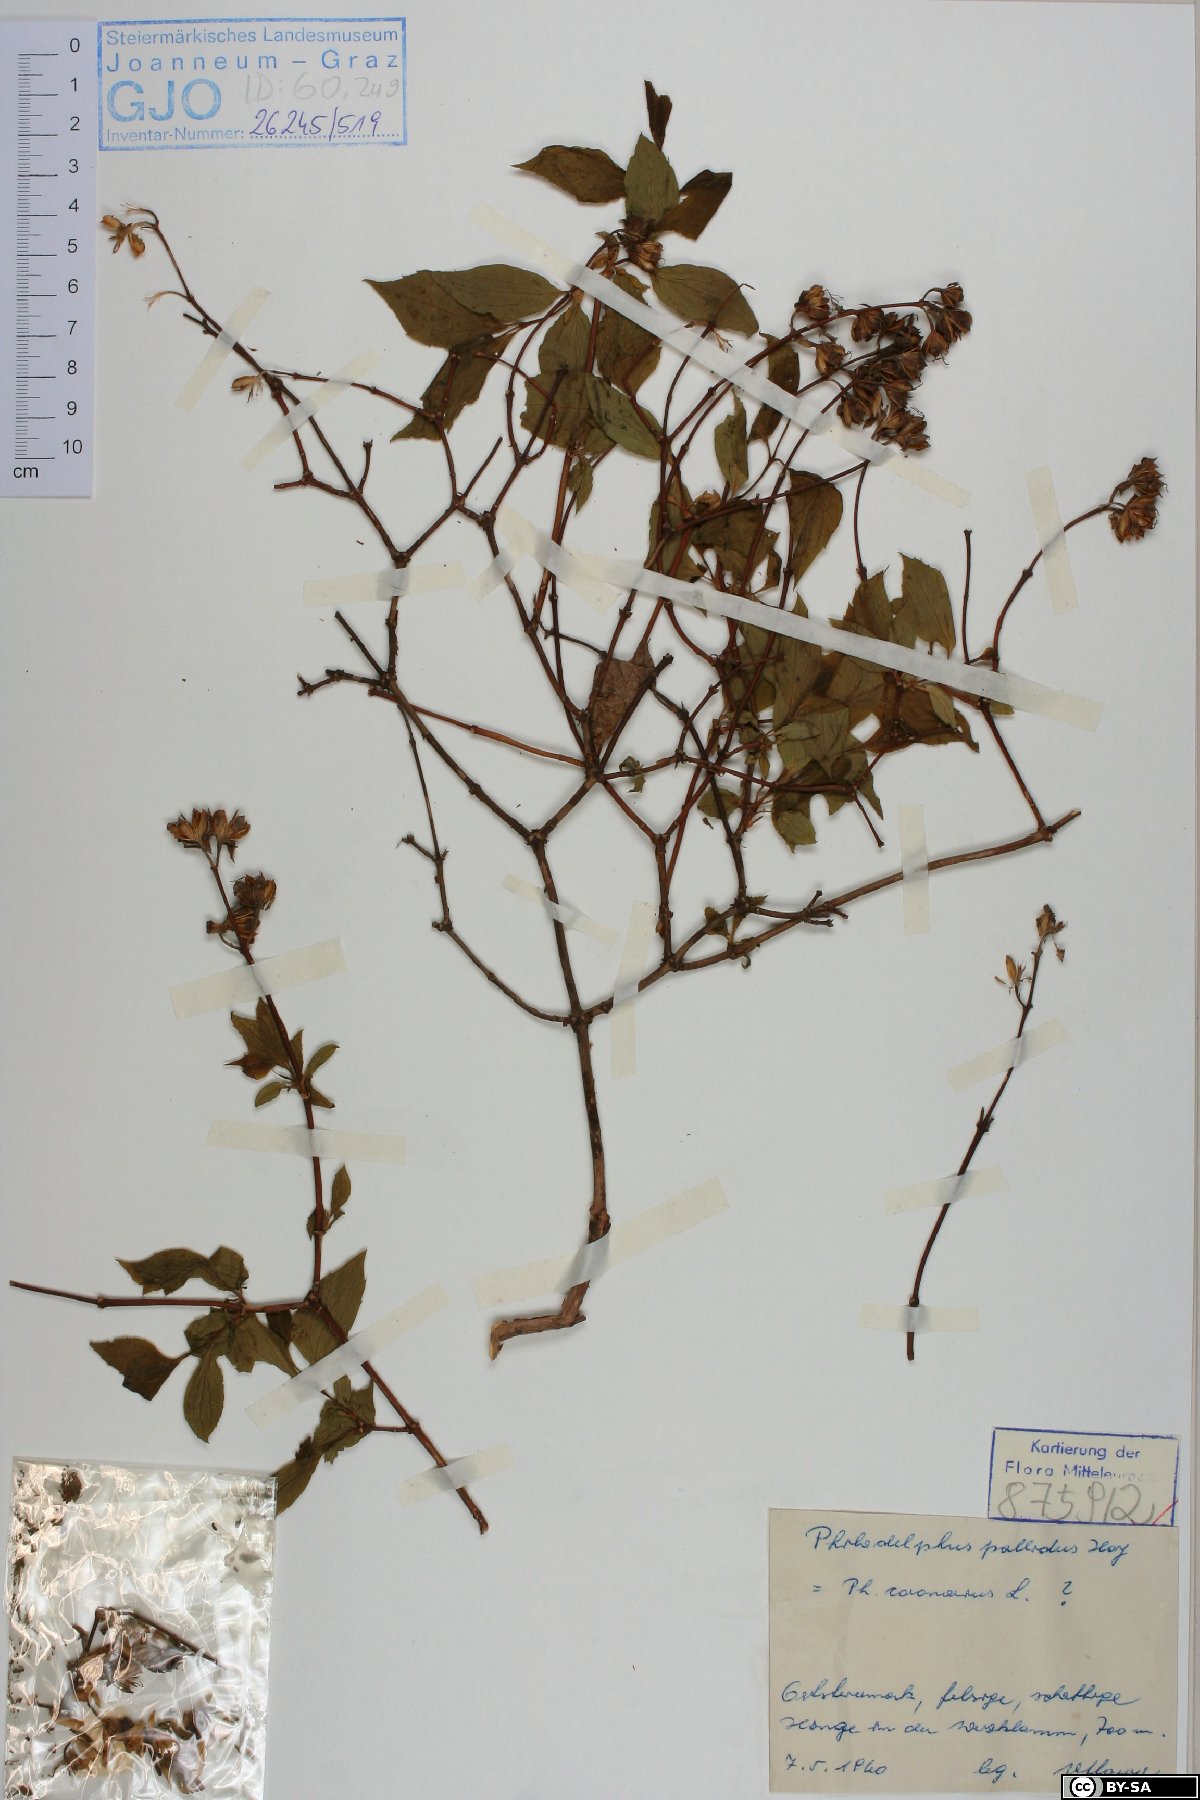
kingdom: Plantae
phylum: Tracheophyta
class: Magnoliopsida
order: Cornales
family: Hydrangeaceae
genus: Philadelphus
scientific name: Philadelphus coronarius
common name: Mock orange
